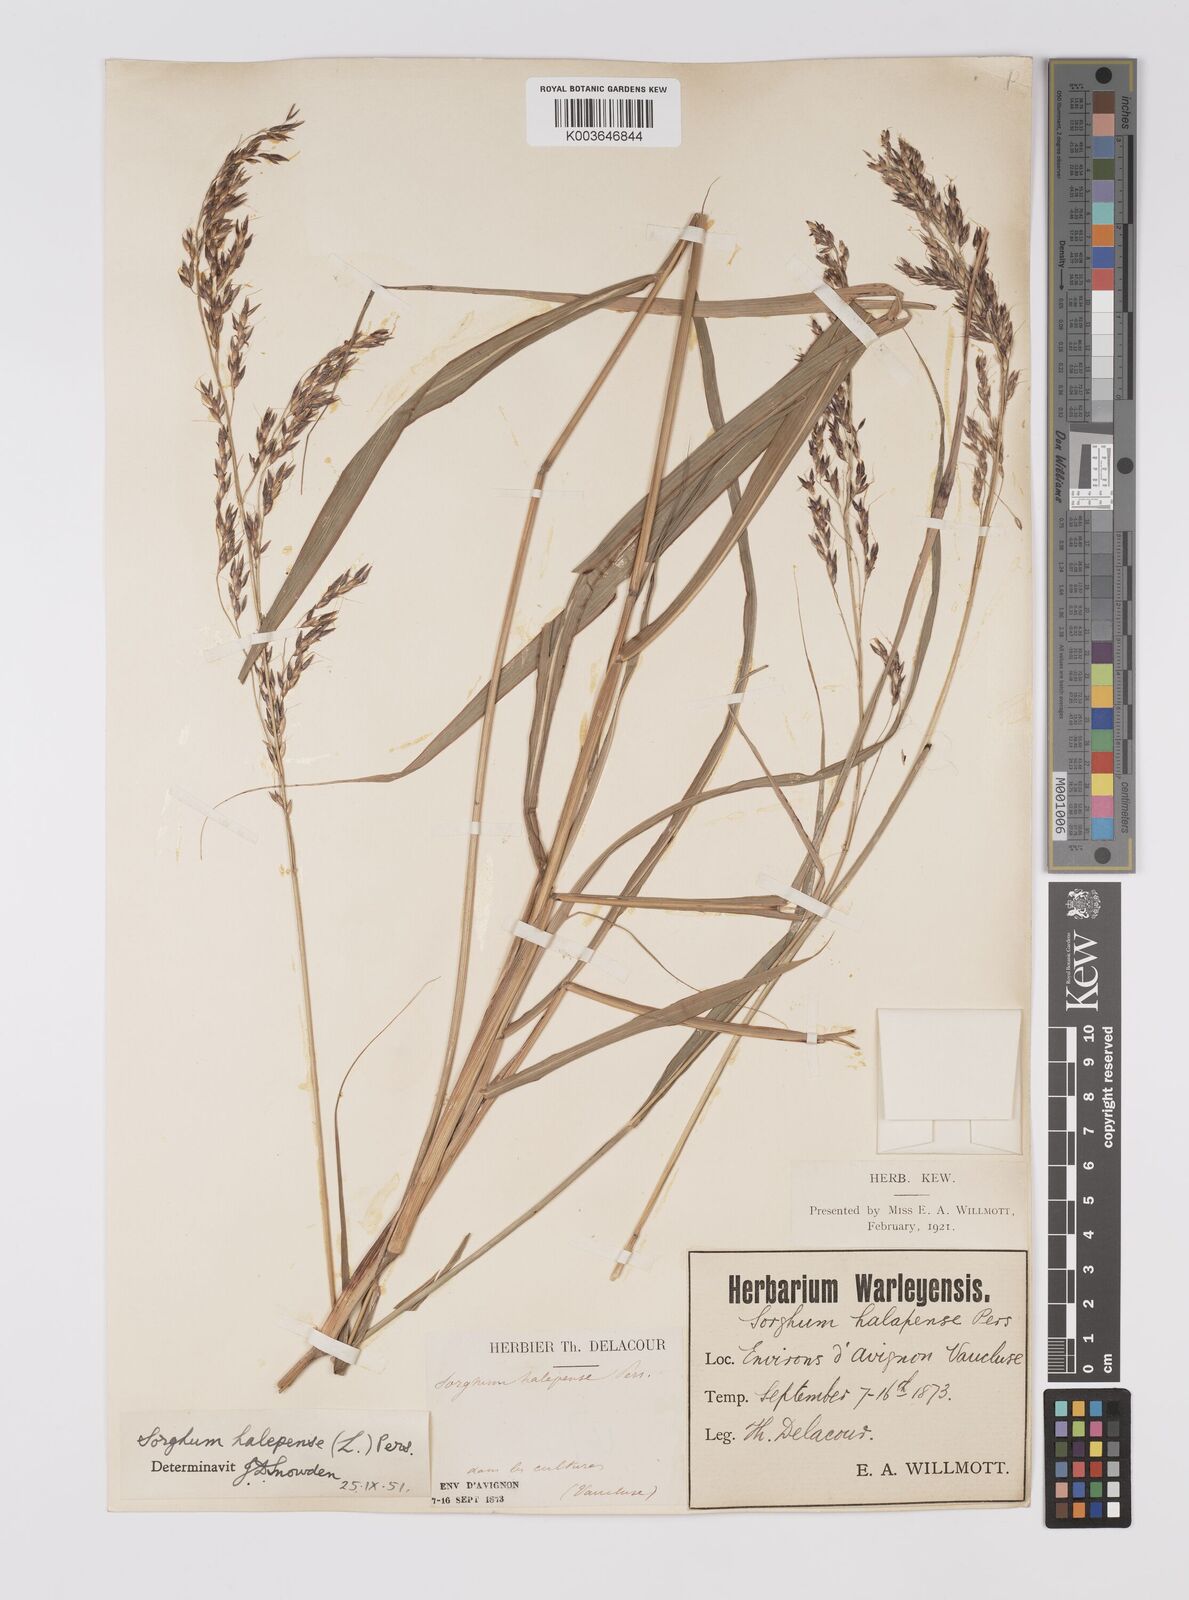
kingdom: Plantae
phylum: Tracheophyta
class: Liliopsida
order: Poales
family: Poaceae
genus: Sorghum
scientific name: Sorghum halepense
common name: Johnson-grass
